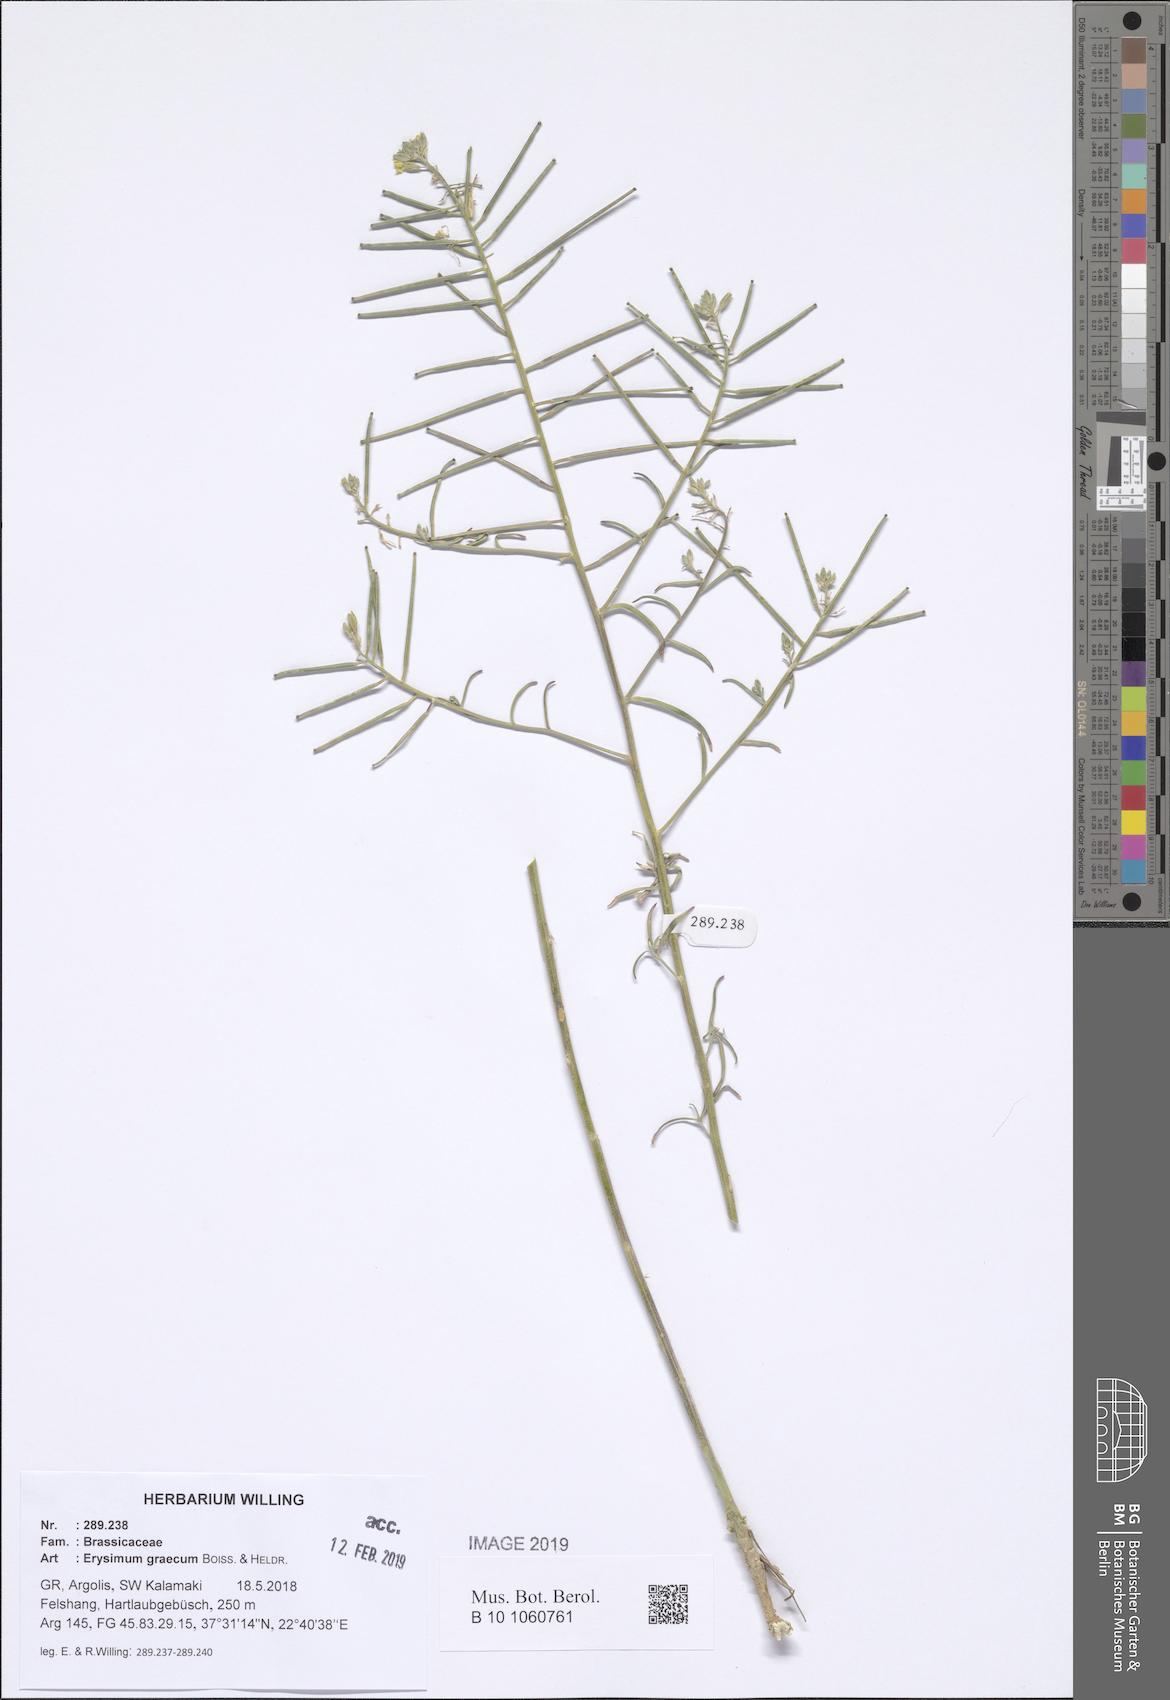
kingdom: Plantae
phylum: Tracheophyta
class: Magnoliopsida
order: Brassicales
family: Brassicaceae
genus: Erysimum
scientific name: Erysimum graecum
